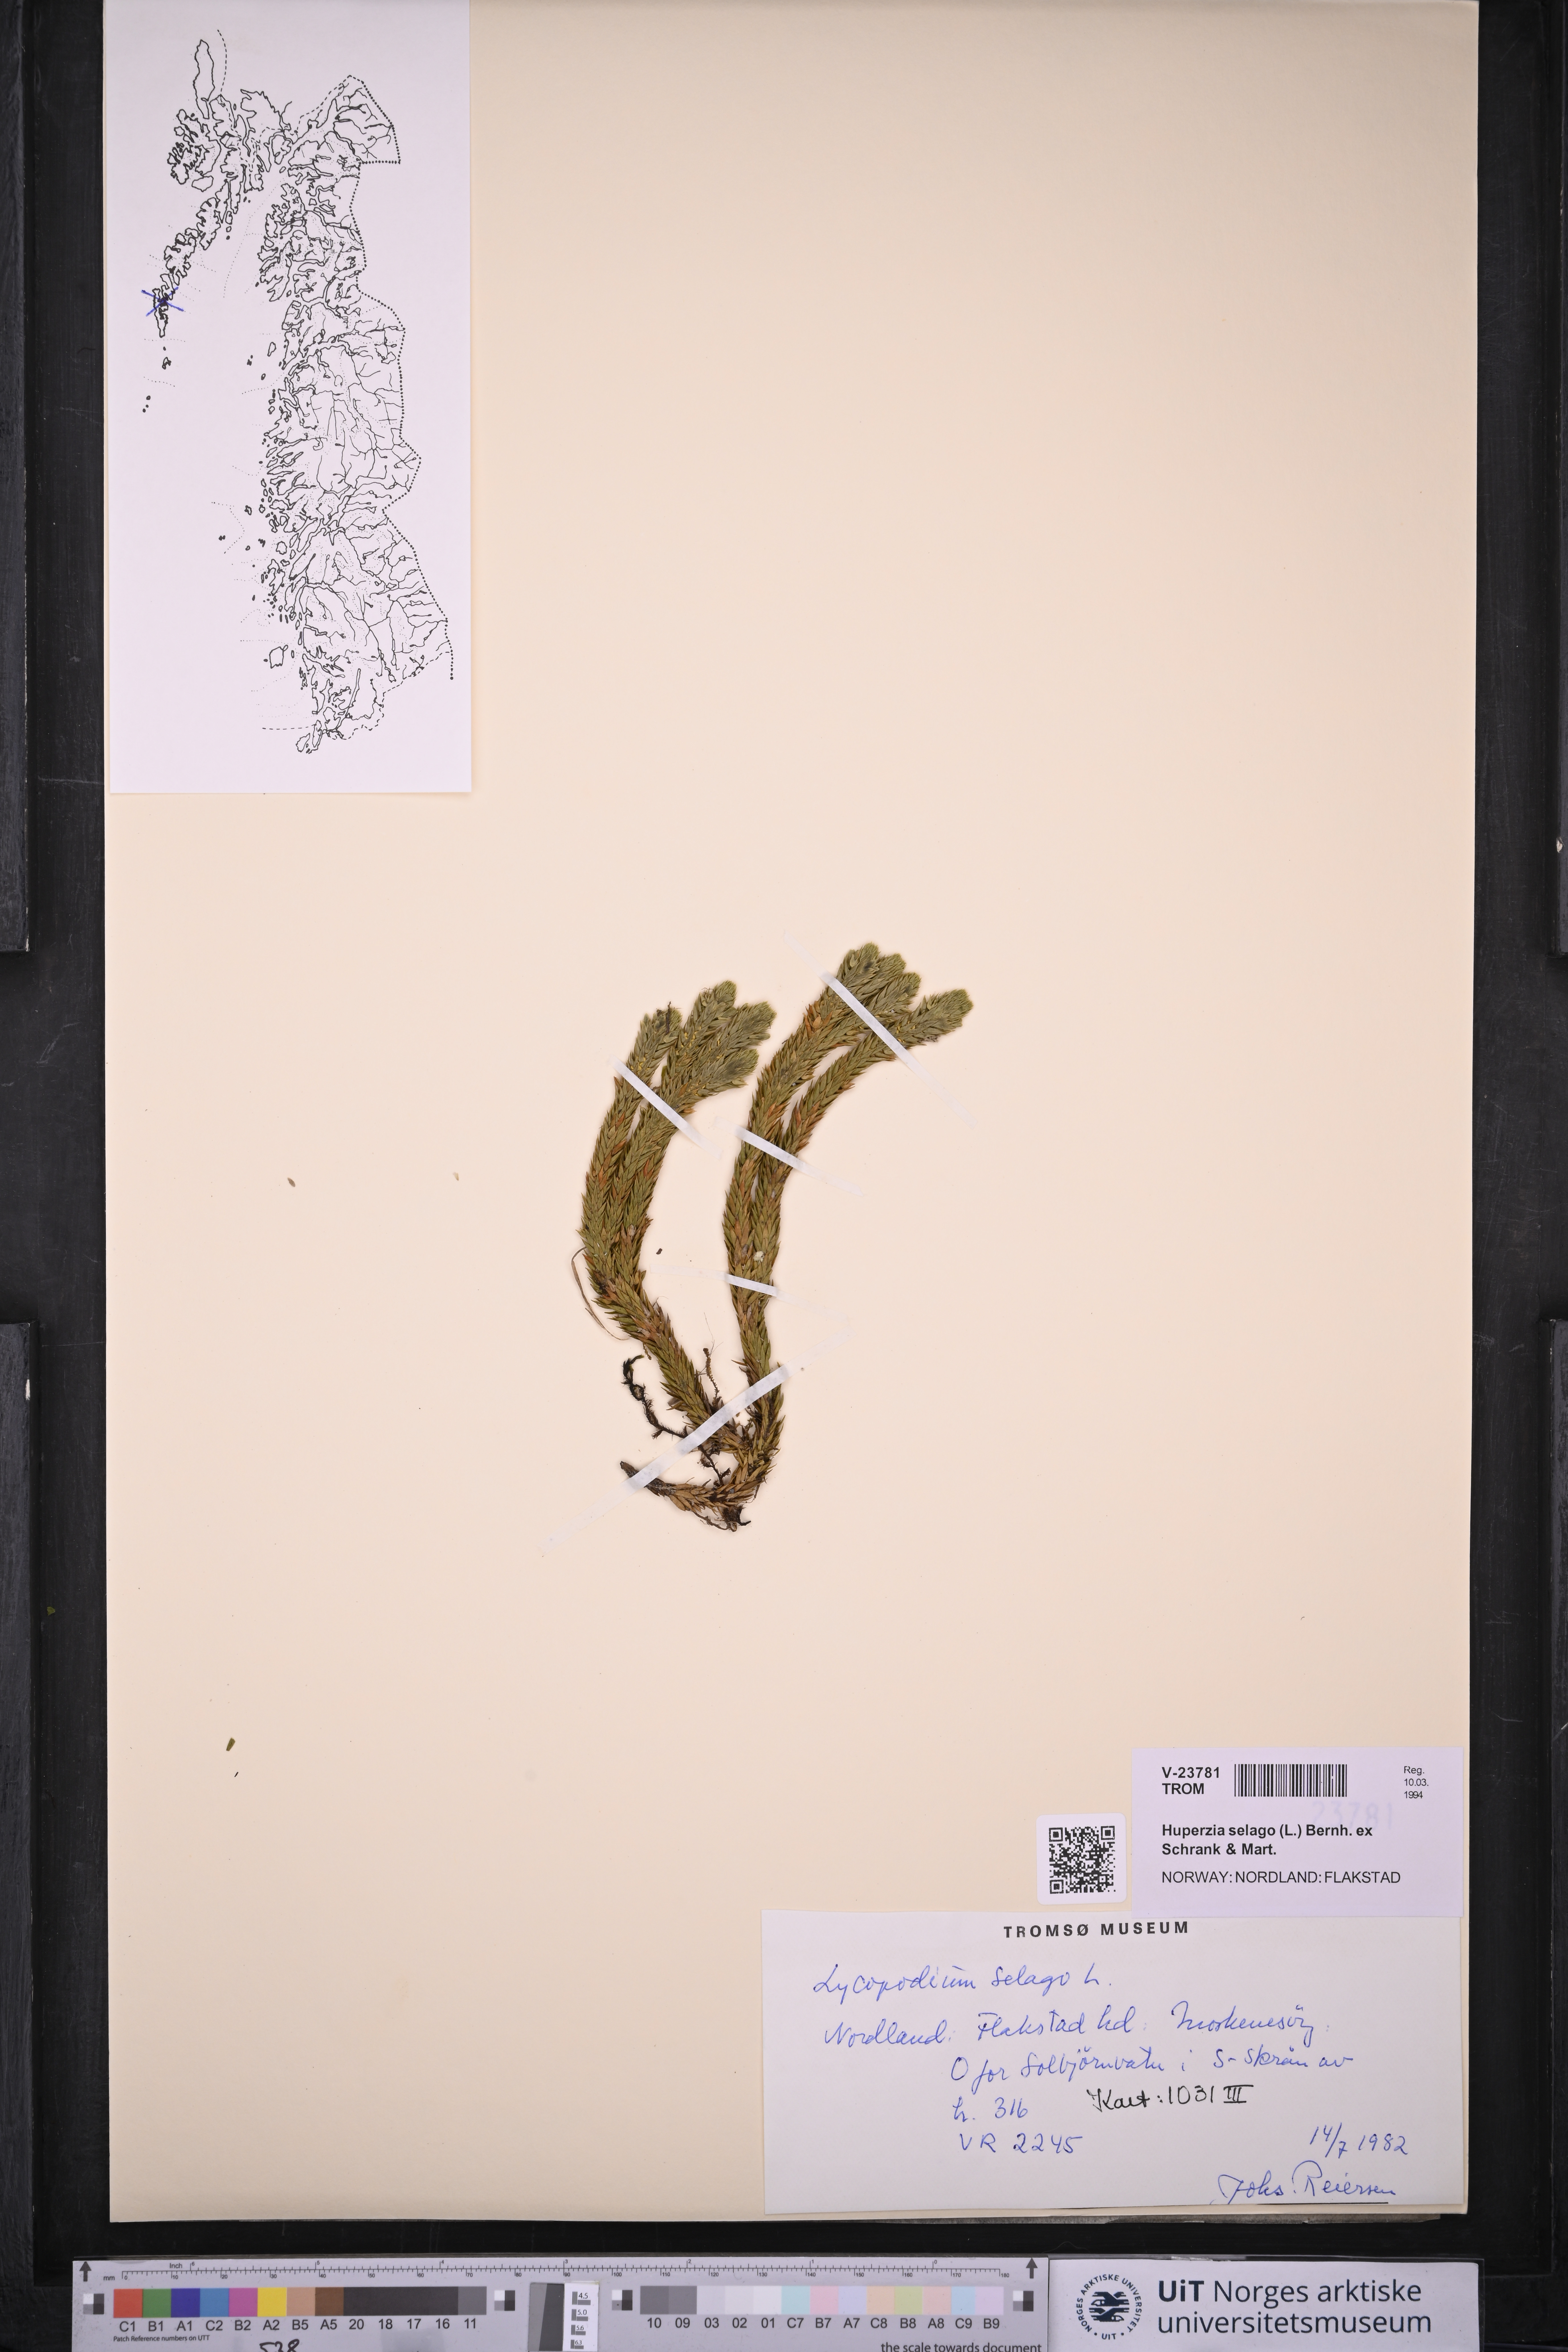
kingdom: Plantae
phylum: Tracheophyta
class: Lycopodiopsida
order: Lycopodiales
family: Lycopodiaceae
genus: Huperzia
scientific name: Huperzia selago
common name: Northern firmoss
